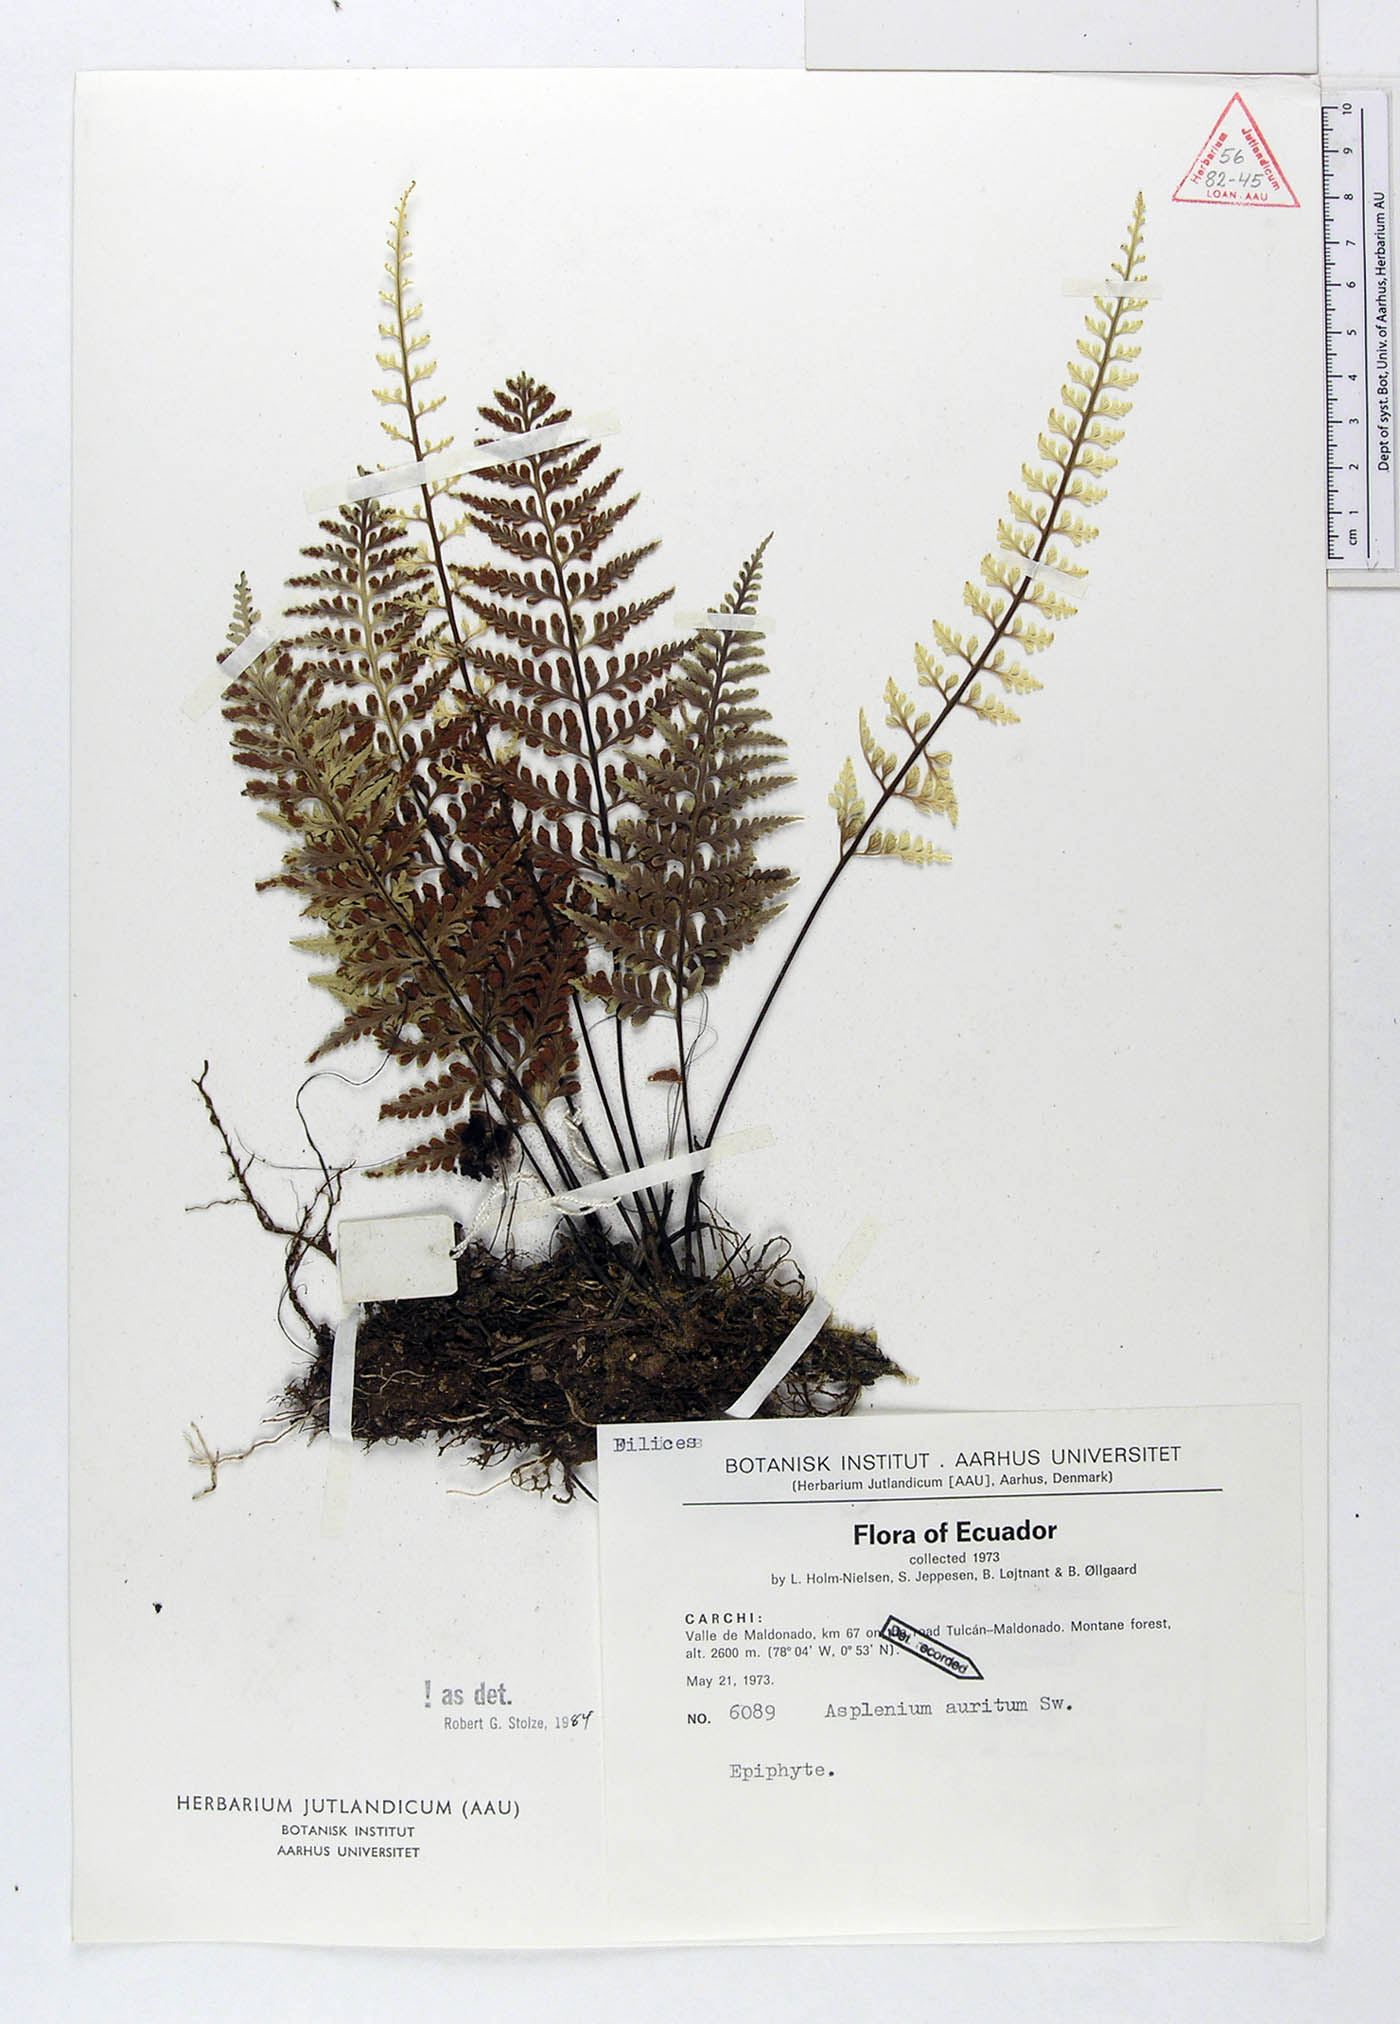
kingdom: Plantae
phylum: Tracheophyta
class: Polypodiopsida
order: Polypodiales
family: Aspleniaceae
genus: Asplenium
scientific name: Asplenium auritum
